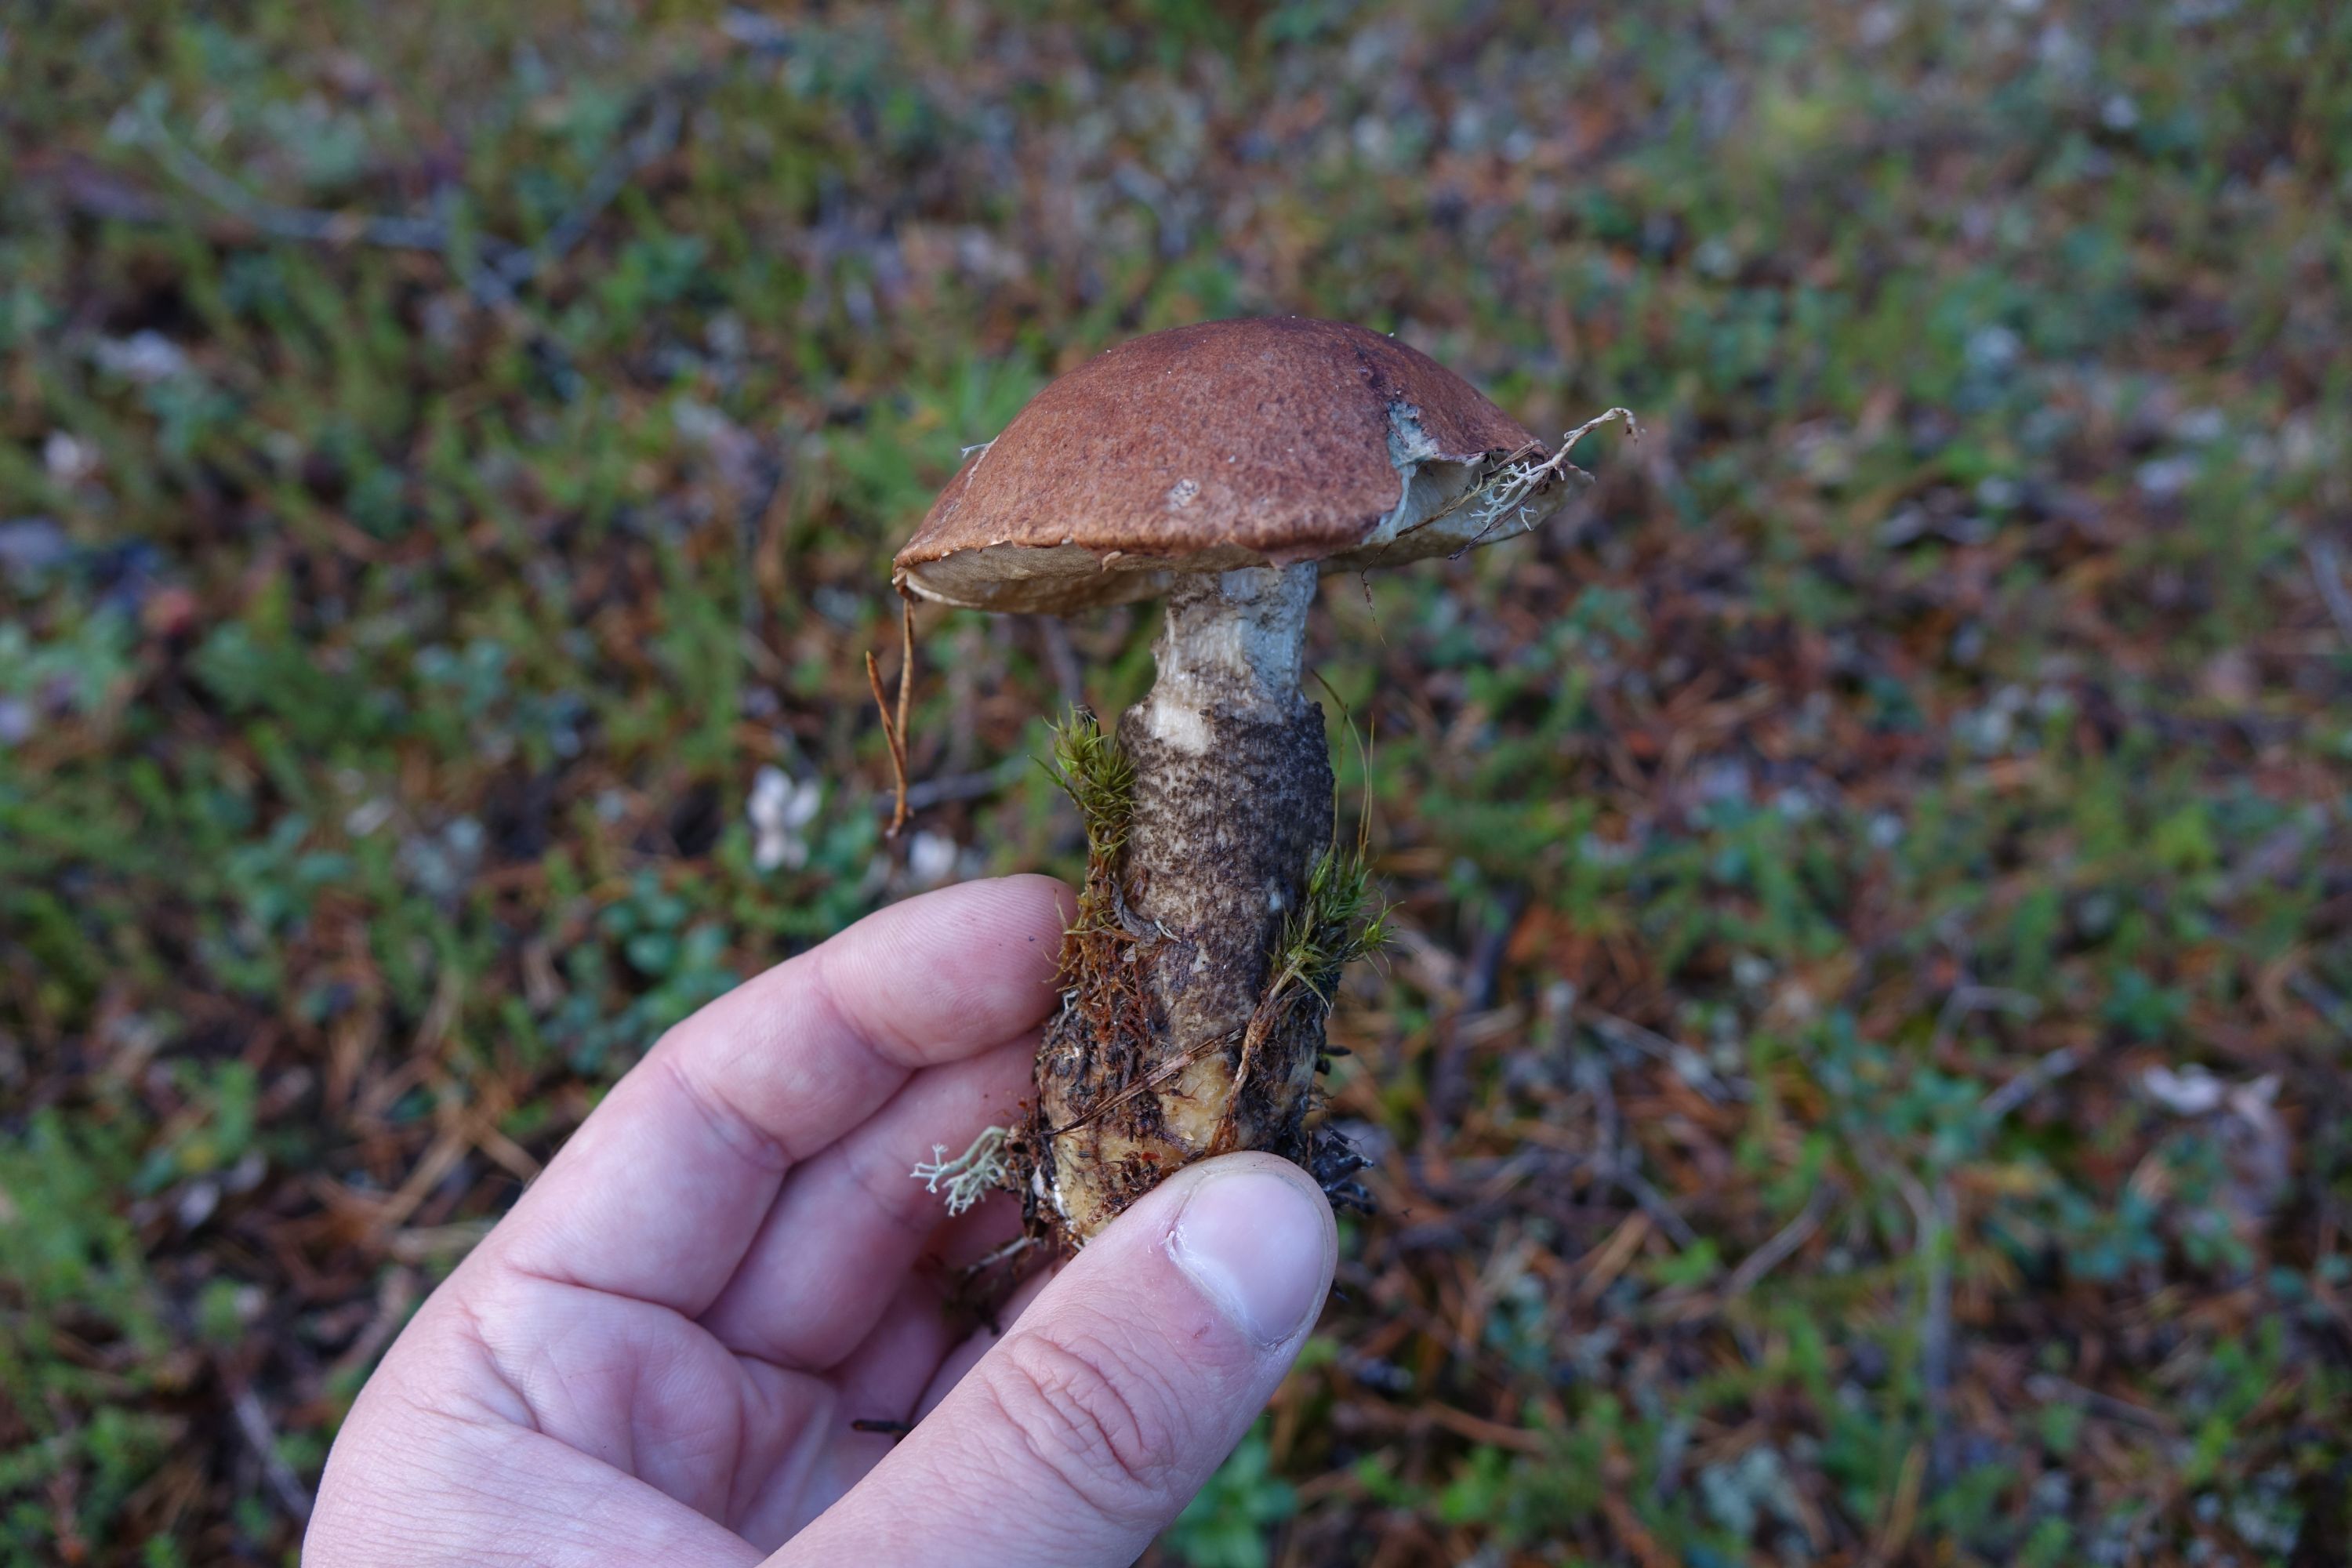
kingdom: Fungi
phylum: Basidiomycota
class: Agaricomycetes
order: Boletales
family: Boletaceae
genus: Leccinum
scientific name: Leccinum vulpinum
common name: Foxy bolete
